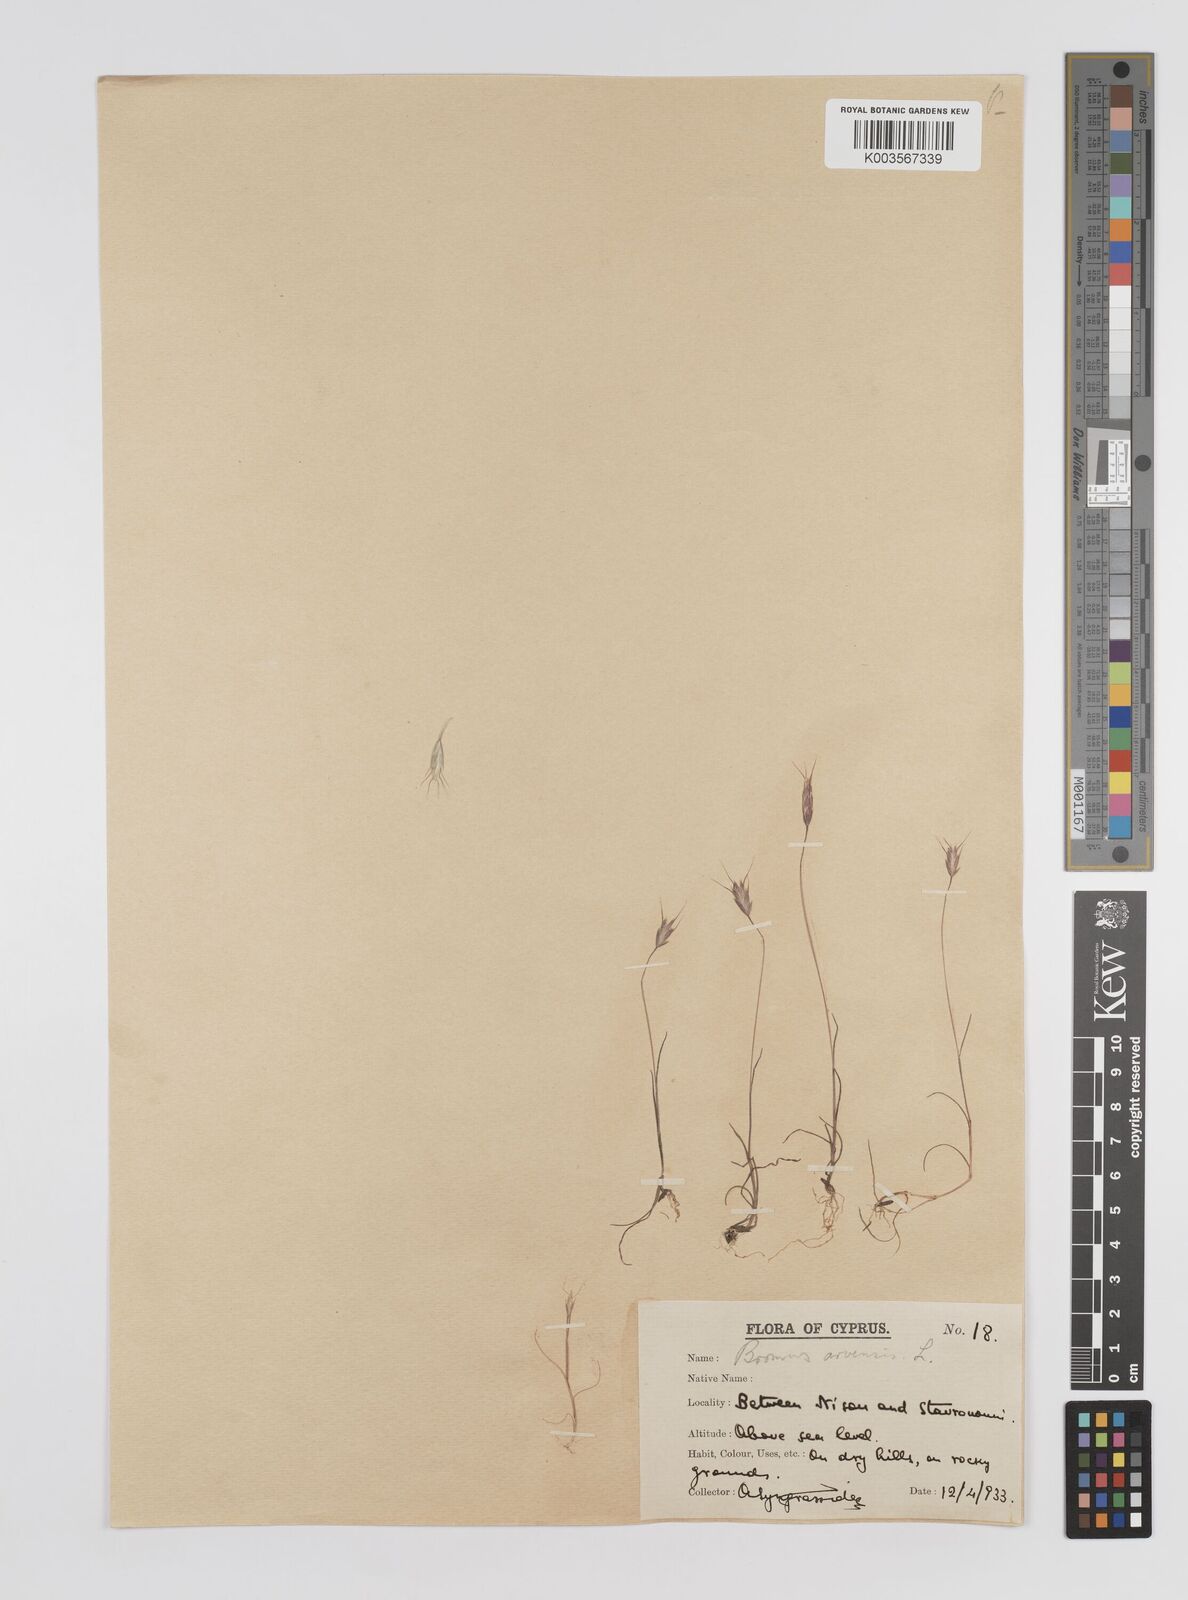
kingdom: Plantae
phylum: Tracheophyta
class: Liliopsida
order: Poales
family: Poaceae
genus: Bromus
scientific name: Bromus arvensis
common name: Field brome
